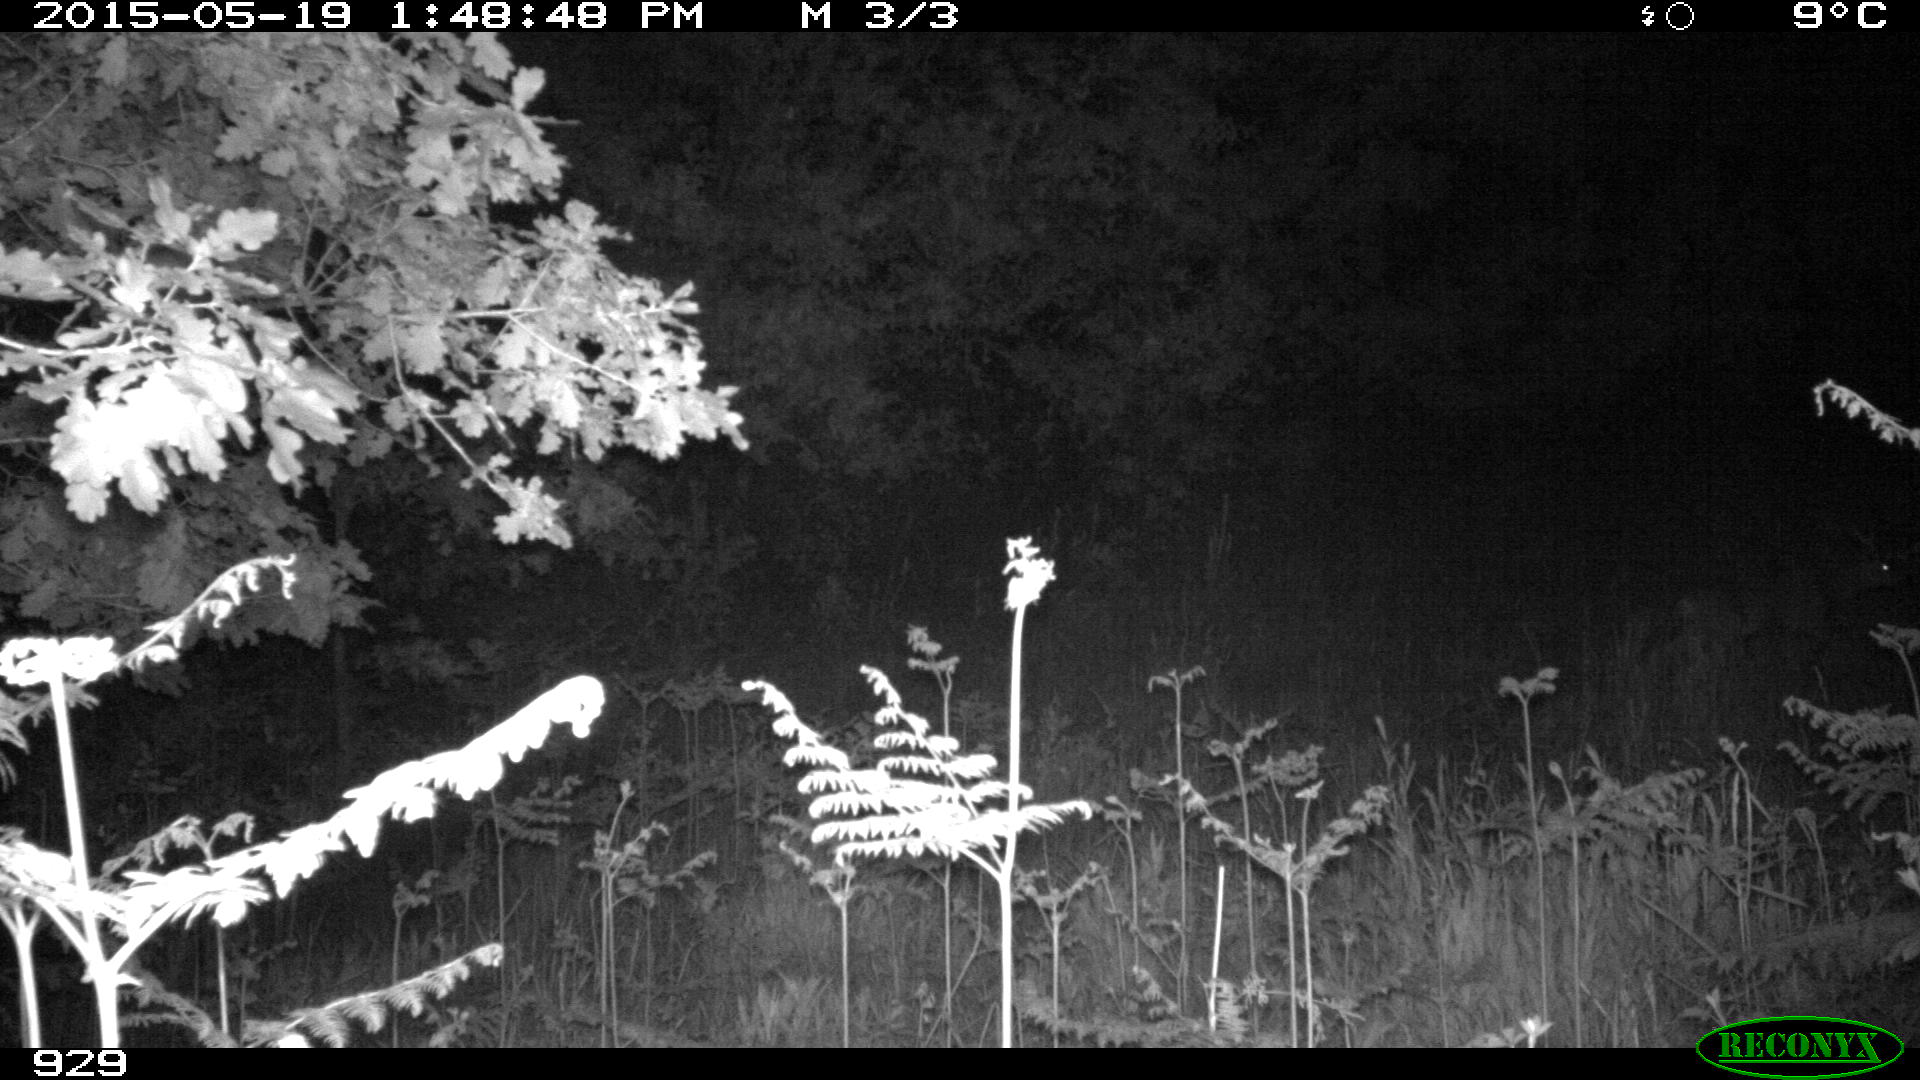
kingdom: Animalia
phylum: Chordata
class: Mammalia
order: Artiodactyla
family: Cervidae
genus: Capreolus
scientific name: Capreolus capreolus
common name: Western roe deer
